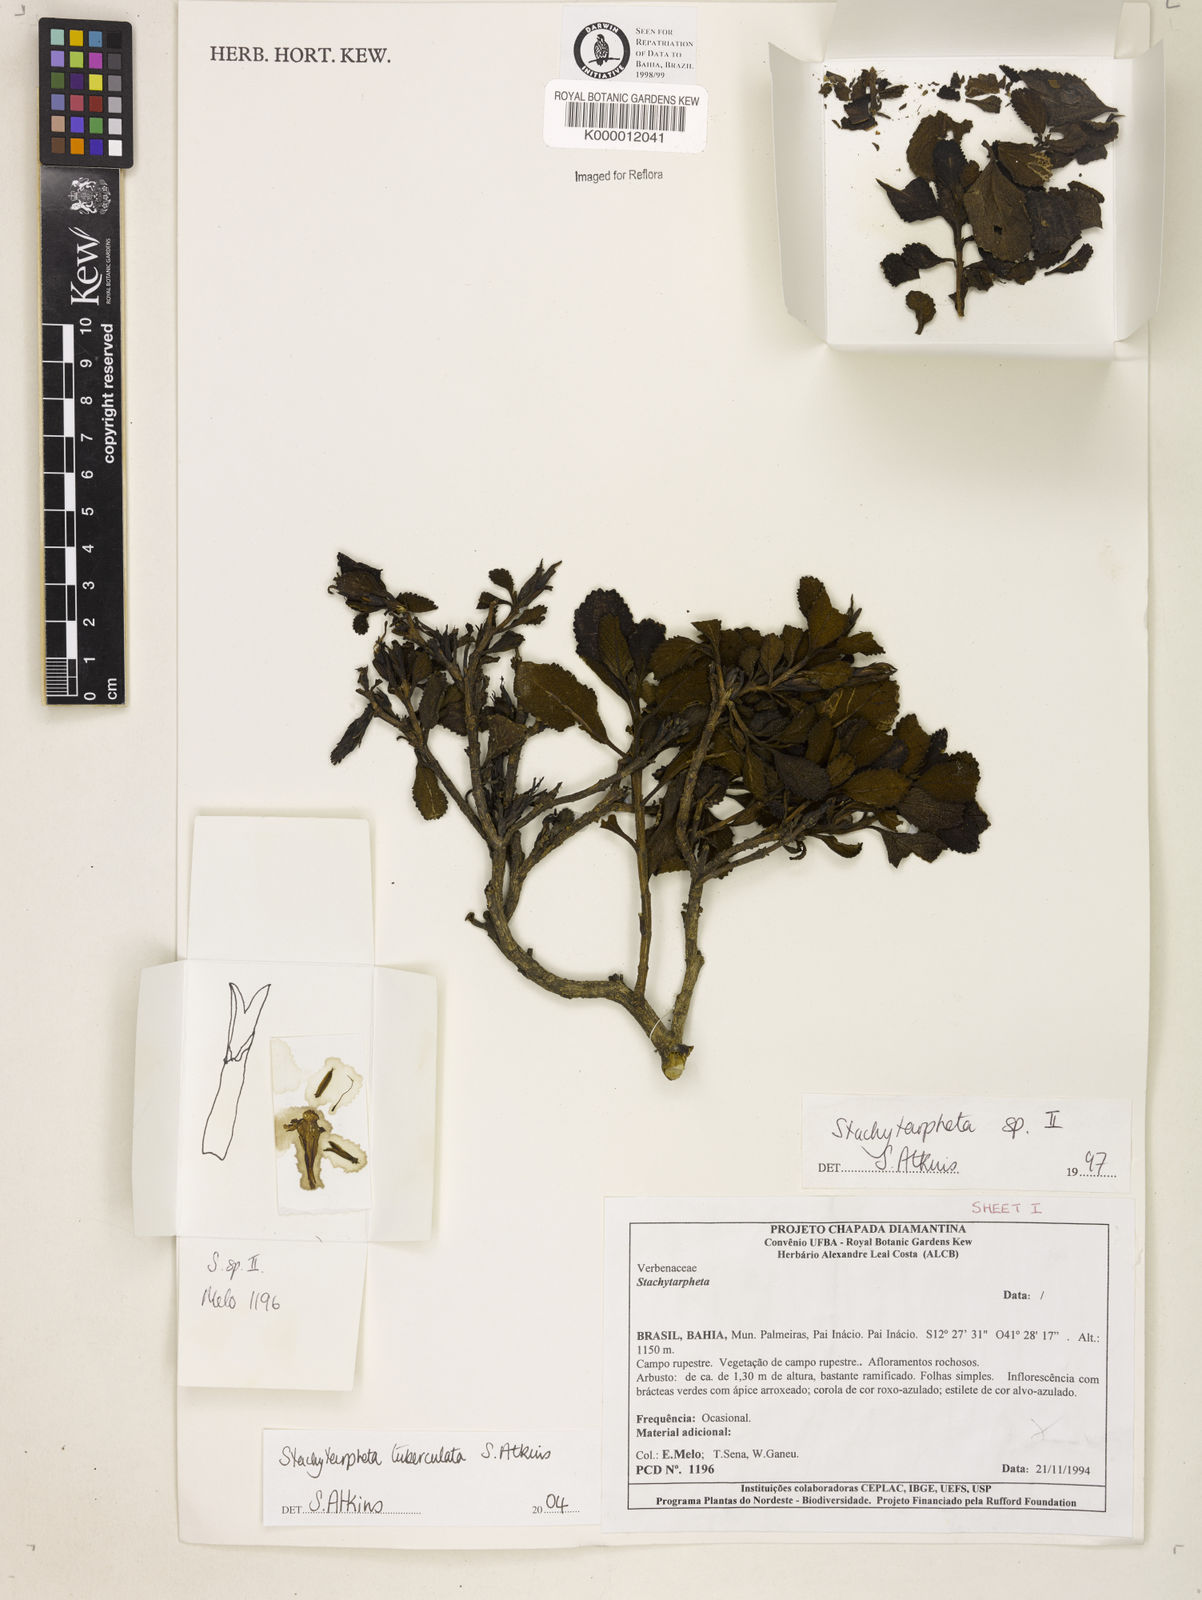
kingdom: Plantae
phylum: Tracheophyta
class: Magnoliopsida
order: Lamiales
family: Verbenaceae
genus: Stachytarpheta
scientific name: Stachytarpheta
